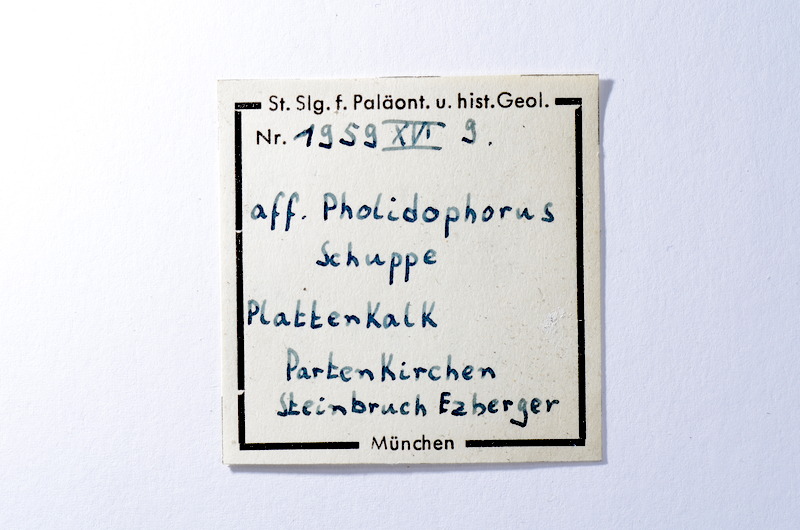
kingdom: Animalia
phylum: Chordata
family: Pholidophoridae
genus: Pholidophorus
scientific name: Pholidophorus
